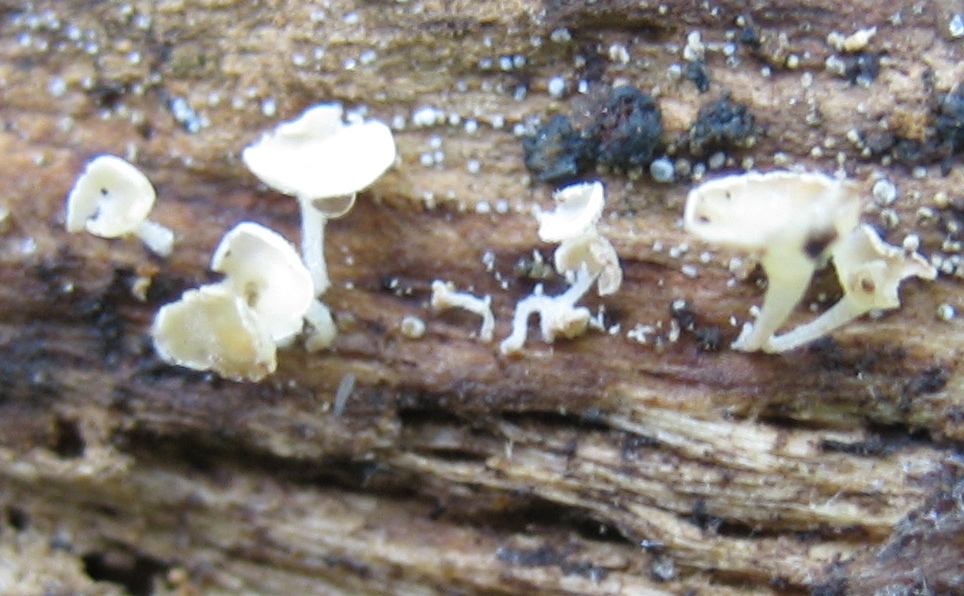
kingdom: Fungi
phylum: Ascomycota
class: Leotiomycetes
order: Helotiales
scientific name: Helotiales
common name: stilkskiveordenen
